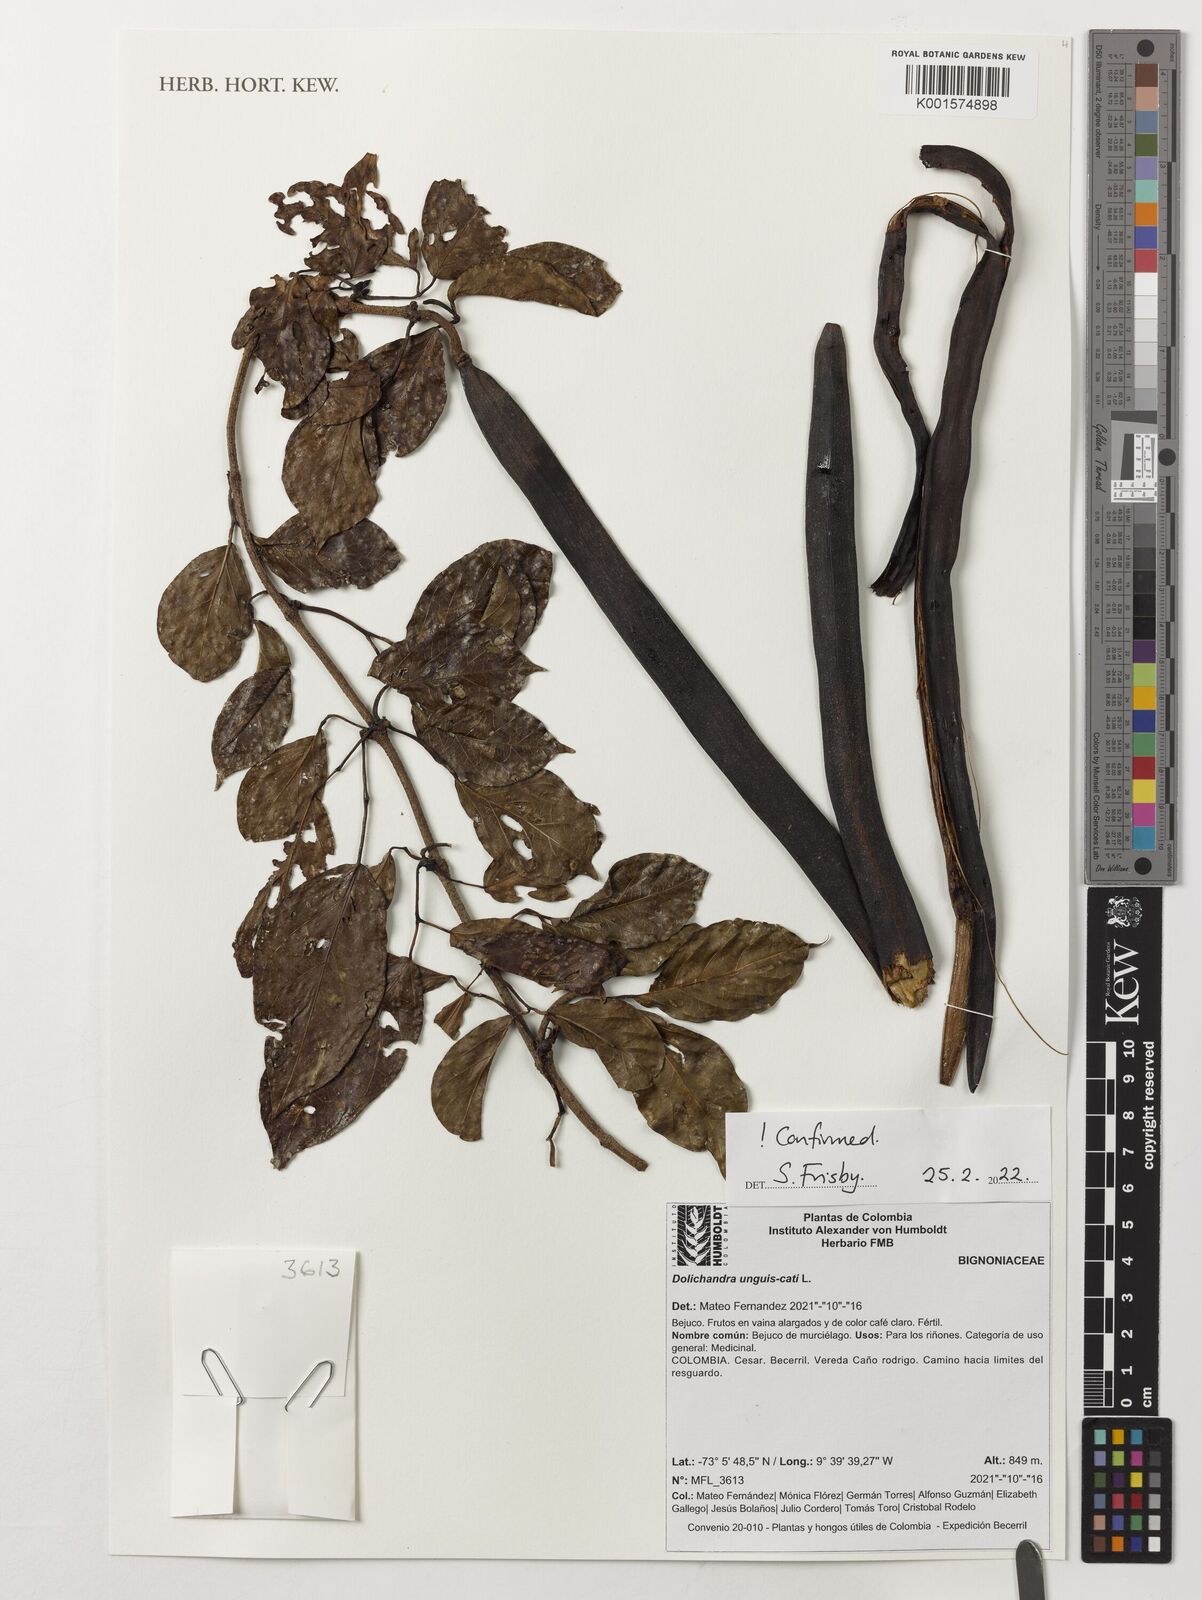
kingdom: Plantae
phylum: Tracheophyta
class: Magnoliopsida
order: Lamiales
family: Bignoniaceae
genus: Dolichandra
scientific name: Dolichandra unguis-cati
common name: Catclaw vine
